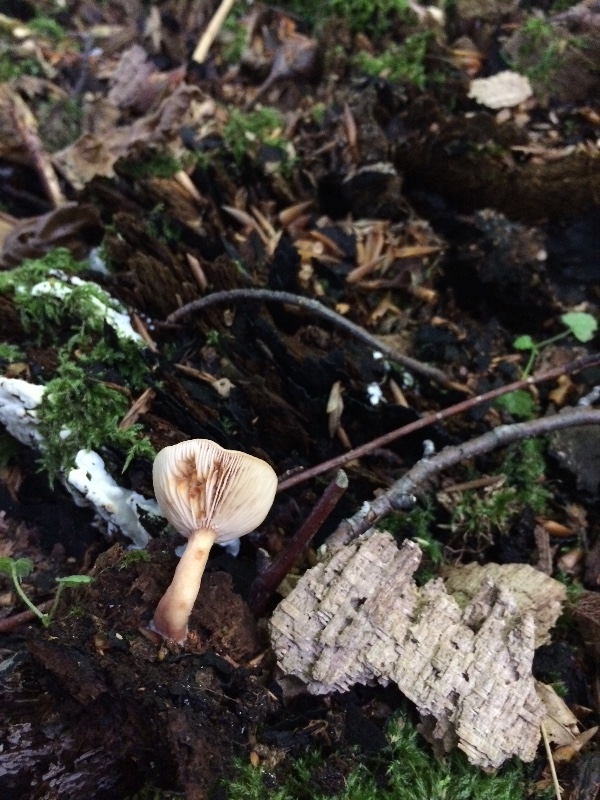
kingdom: Fungi
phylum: Basidiomycota
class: Agaricomycetes
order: Russulales
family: Russulaceae
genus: Lactarius
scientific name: Lactarius subdulcis
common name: sødlig mælkehat
